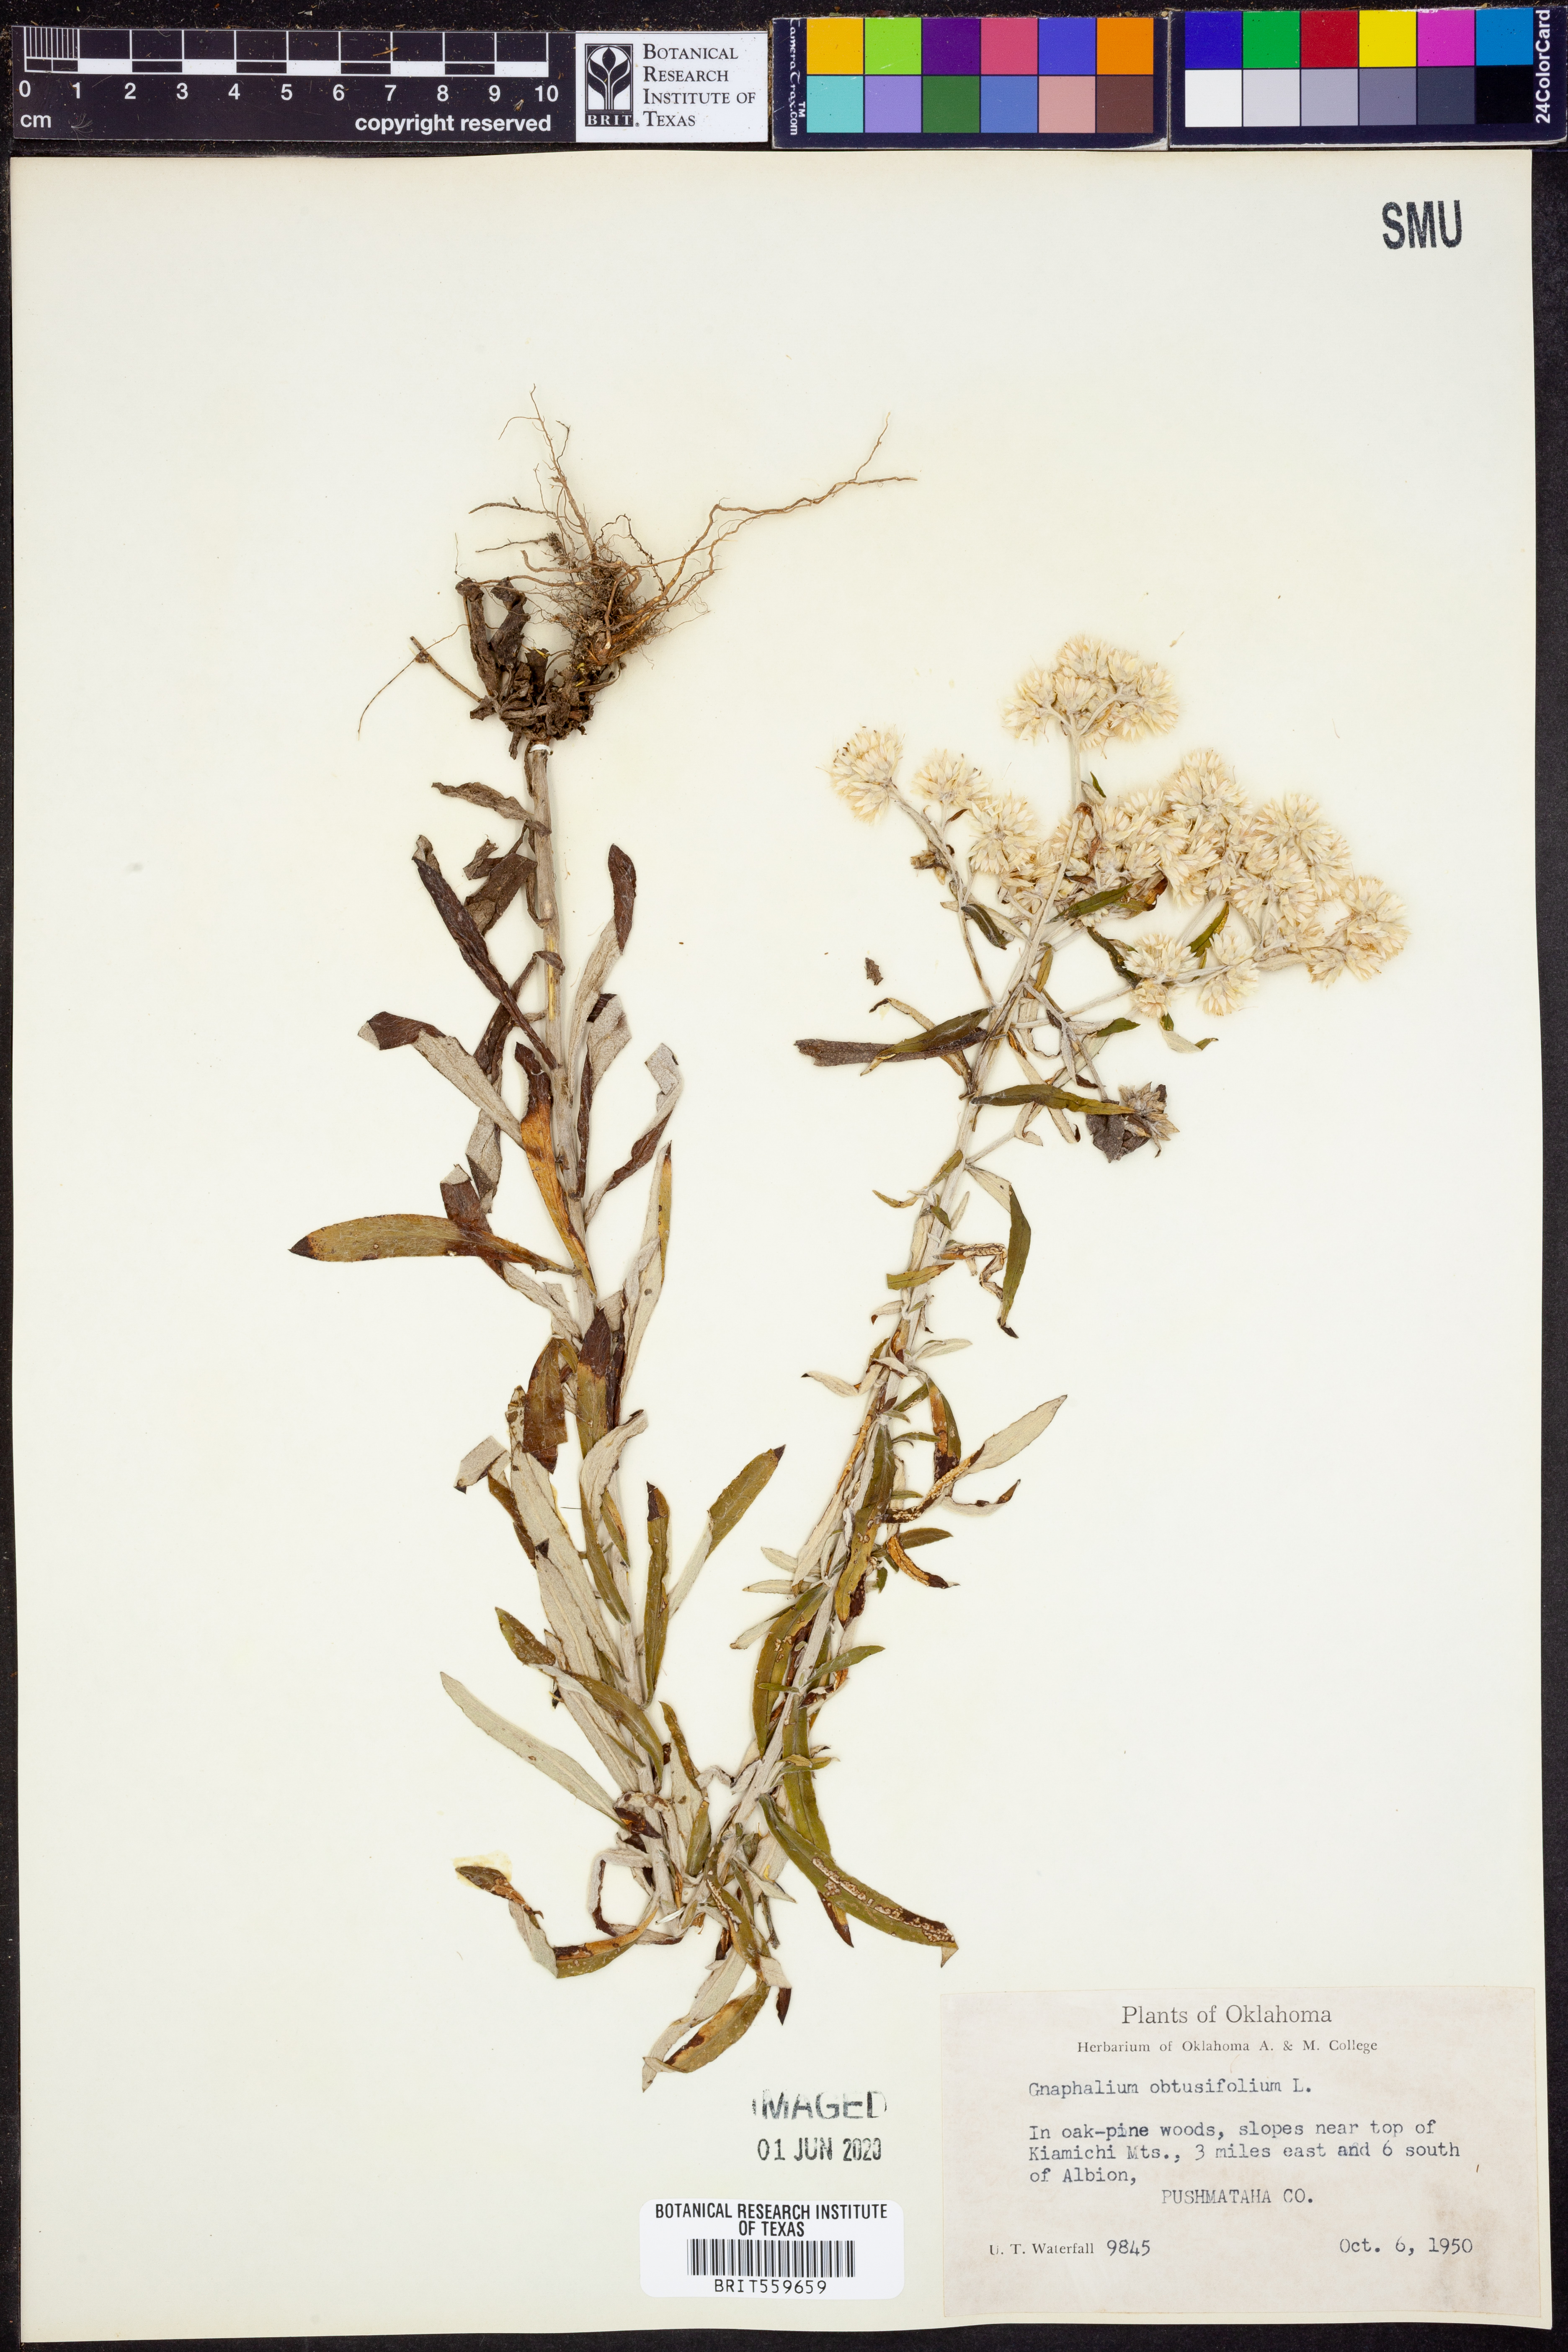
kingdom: Plantae
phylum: Tracheophyta
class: Magnoliopsida
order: Asterales
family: Asteraceae
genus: Pseudognaphalium
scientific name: Pseudognaphalium obtusifolium
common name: Eastern rabbit-tobacco
